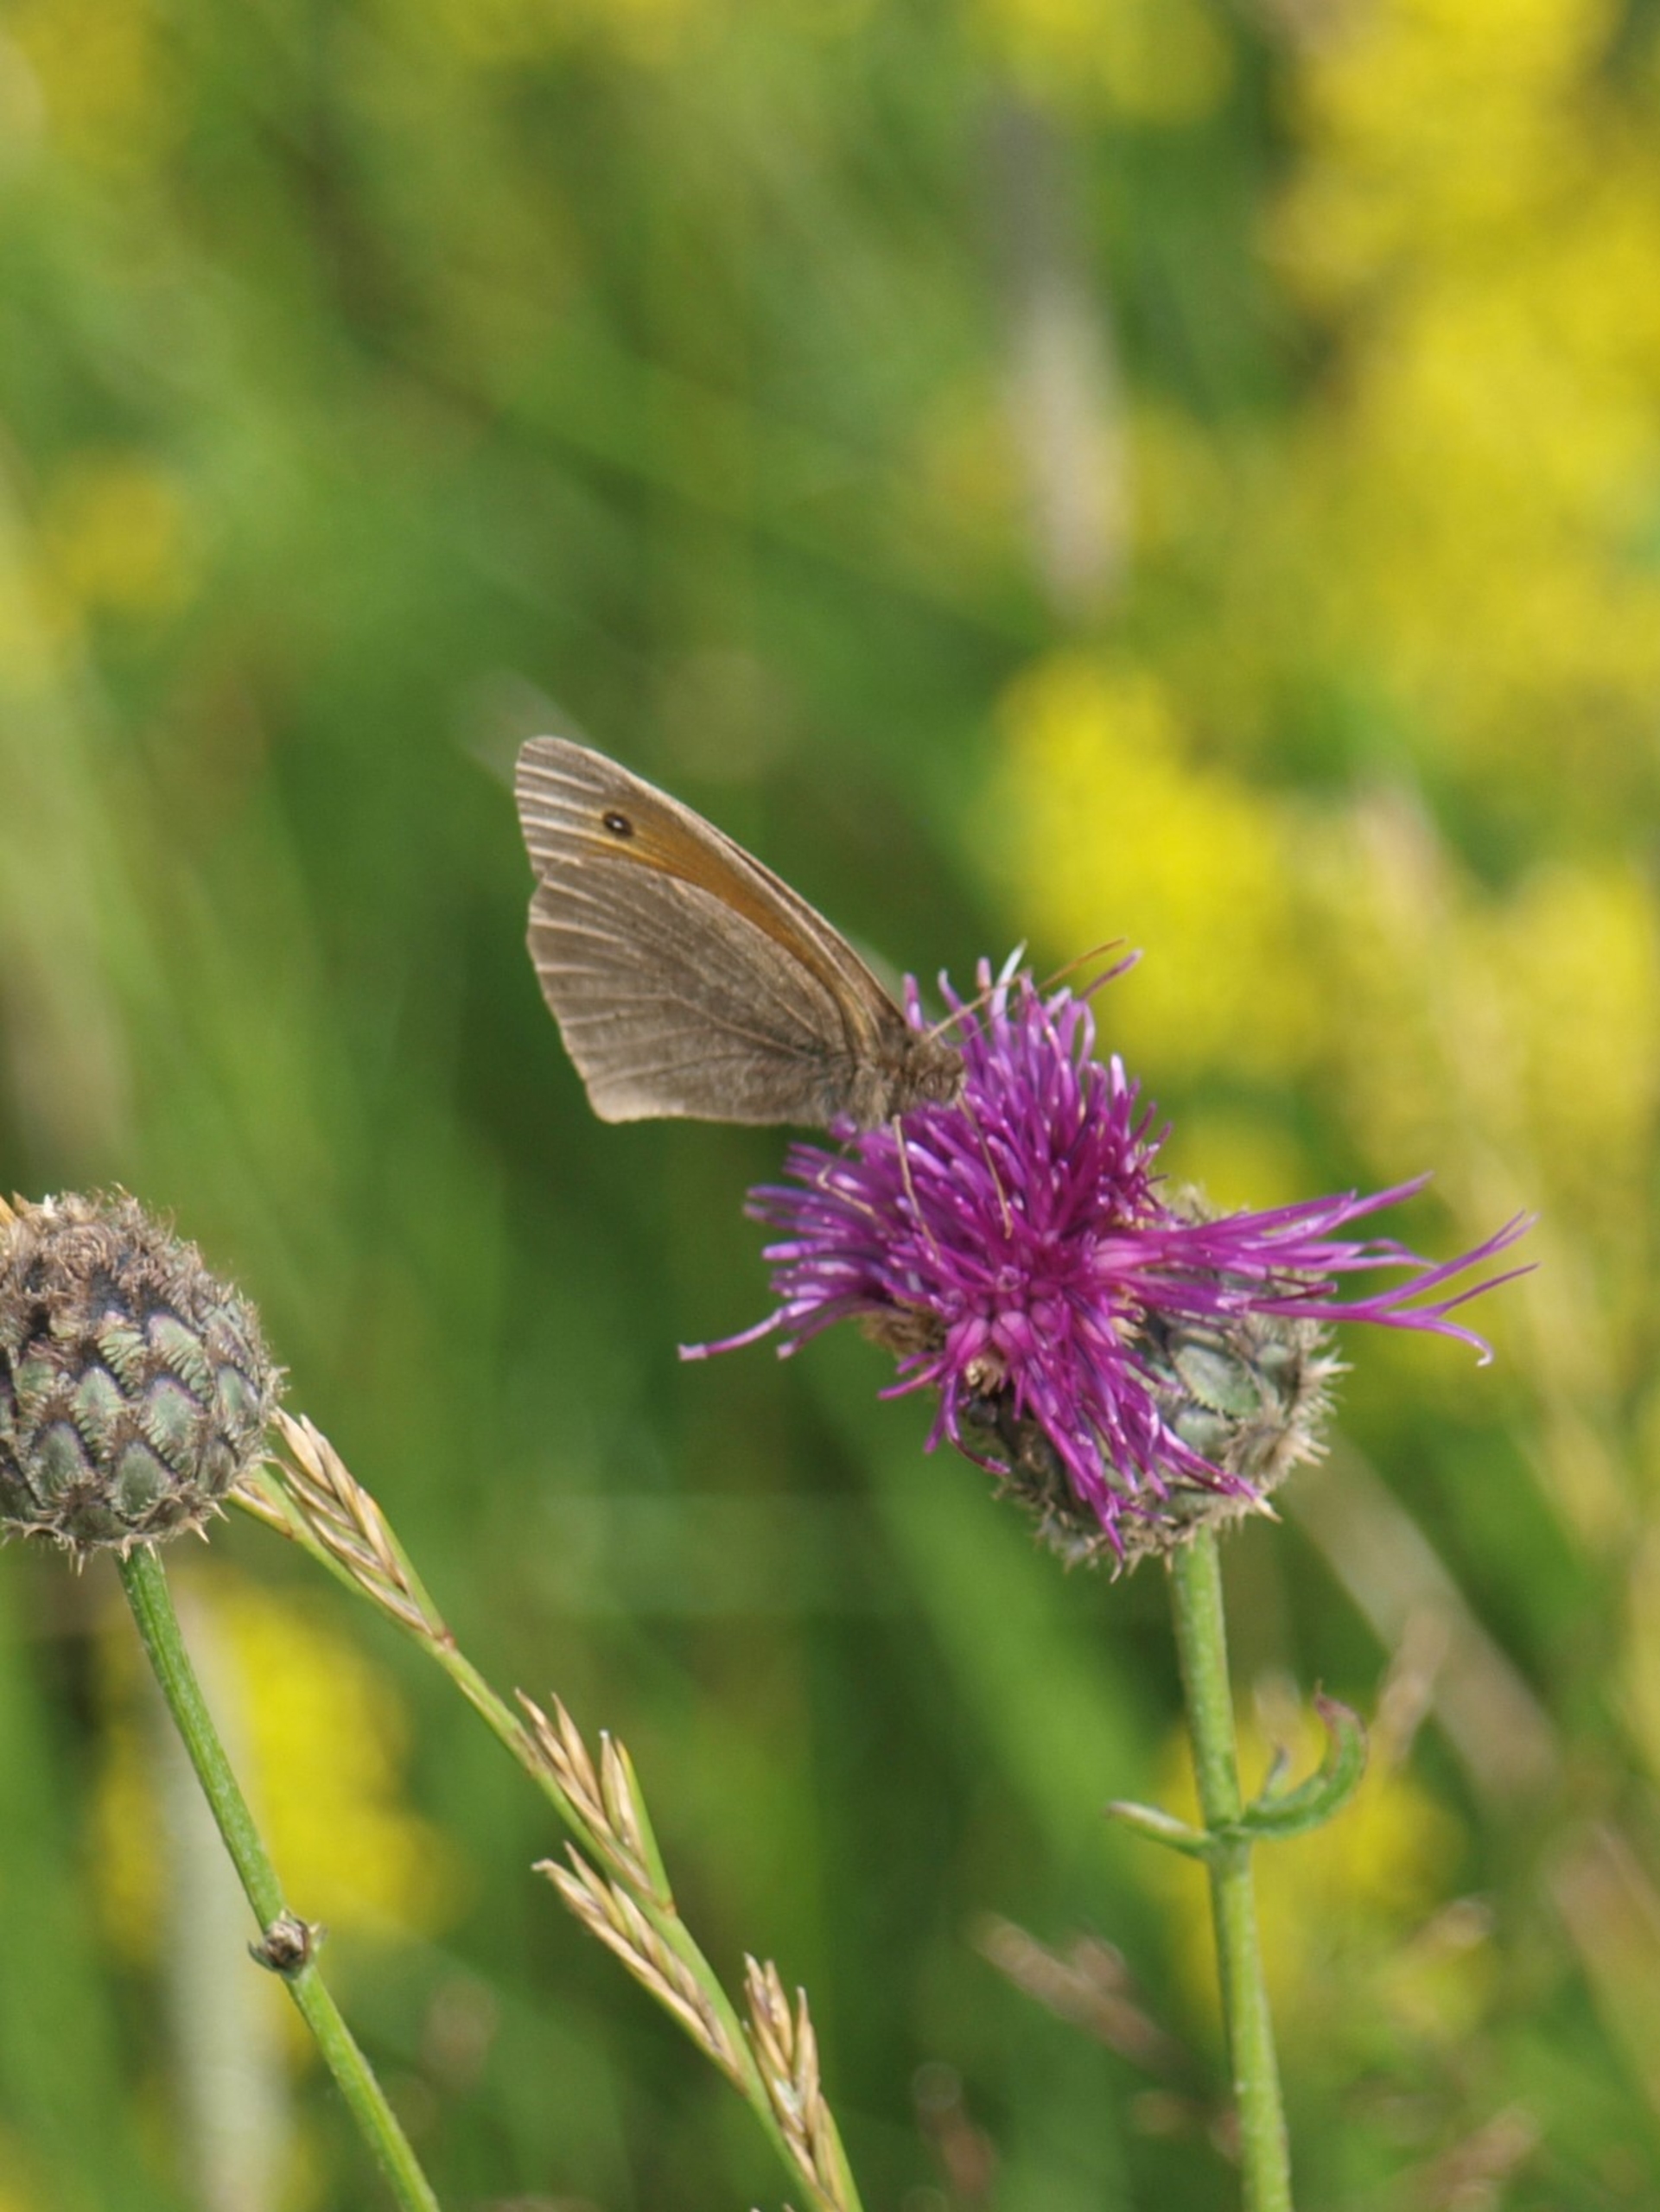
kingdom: Animalia
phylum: Arthropoda
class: Insecta
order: Lepidoptera
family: Nymphalidae
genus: Maniola
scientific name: Maniola jurtina
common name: Græsrandøje
